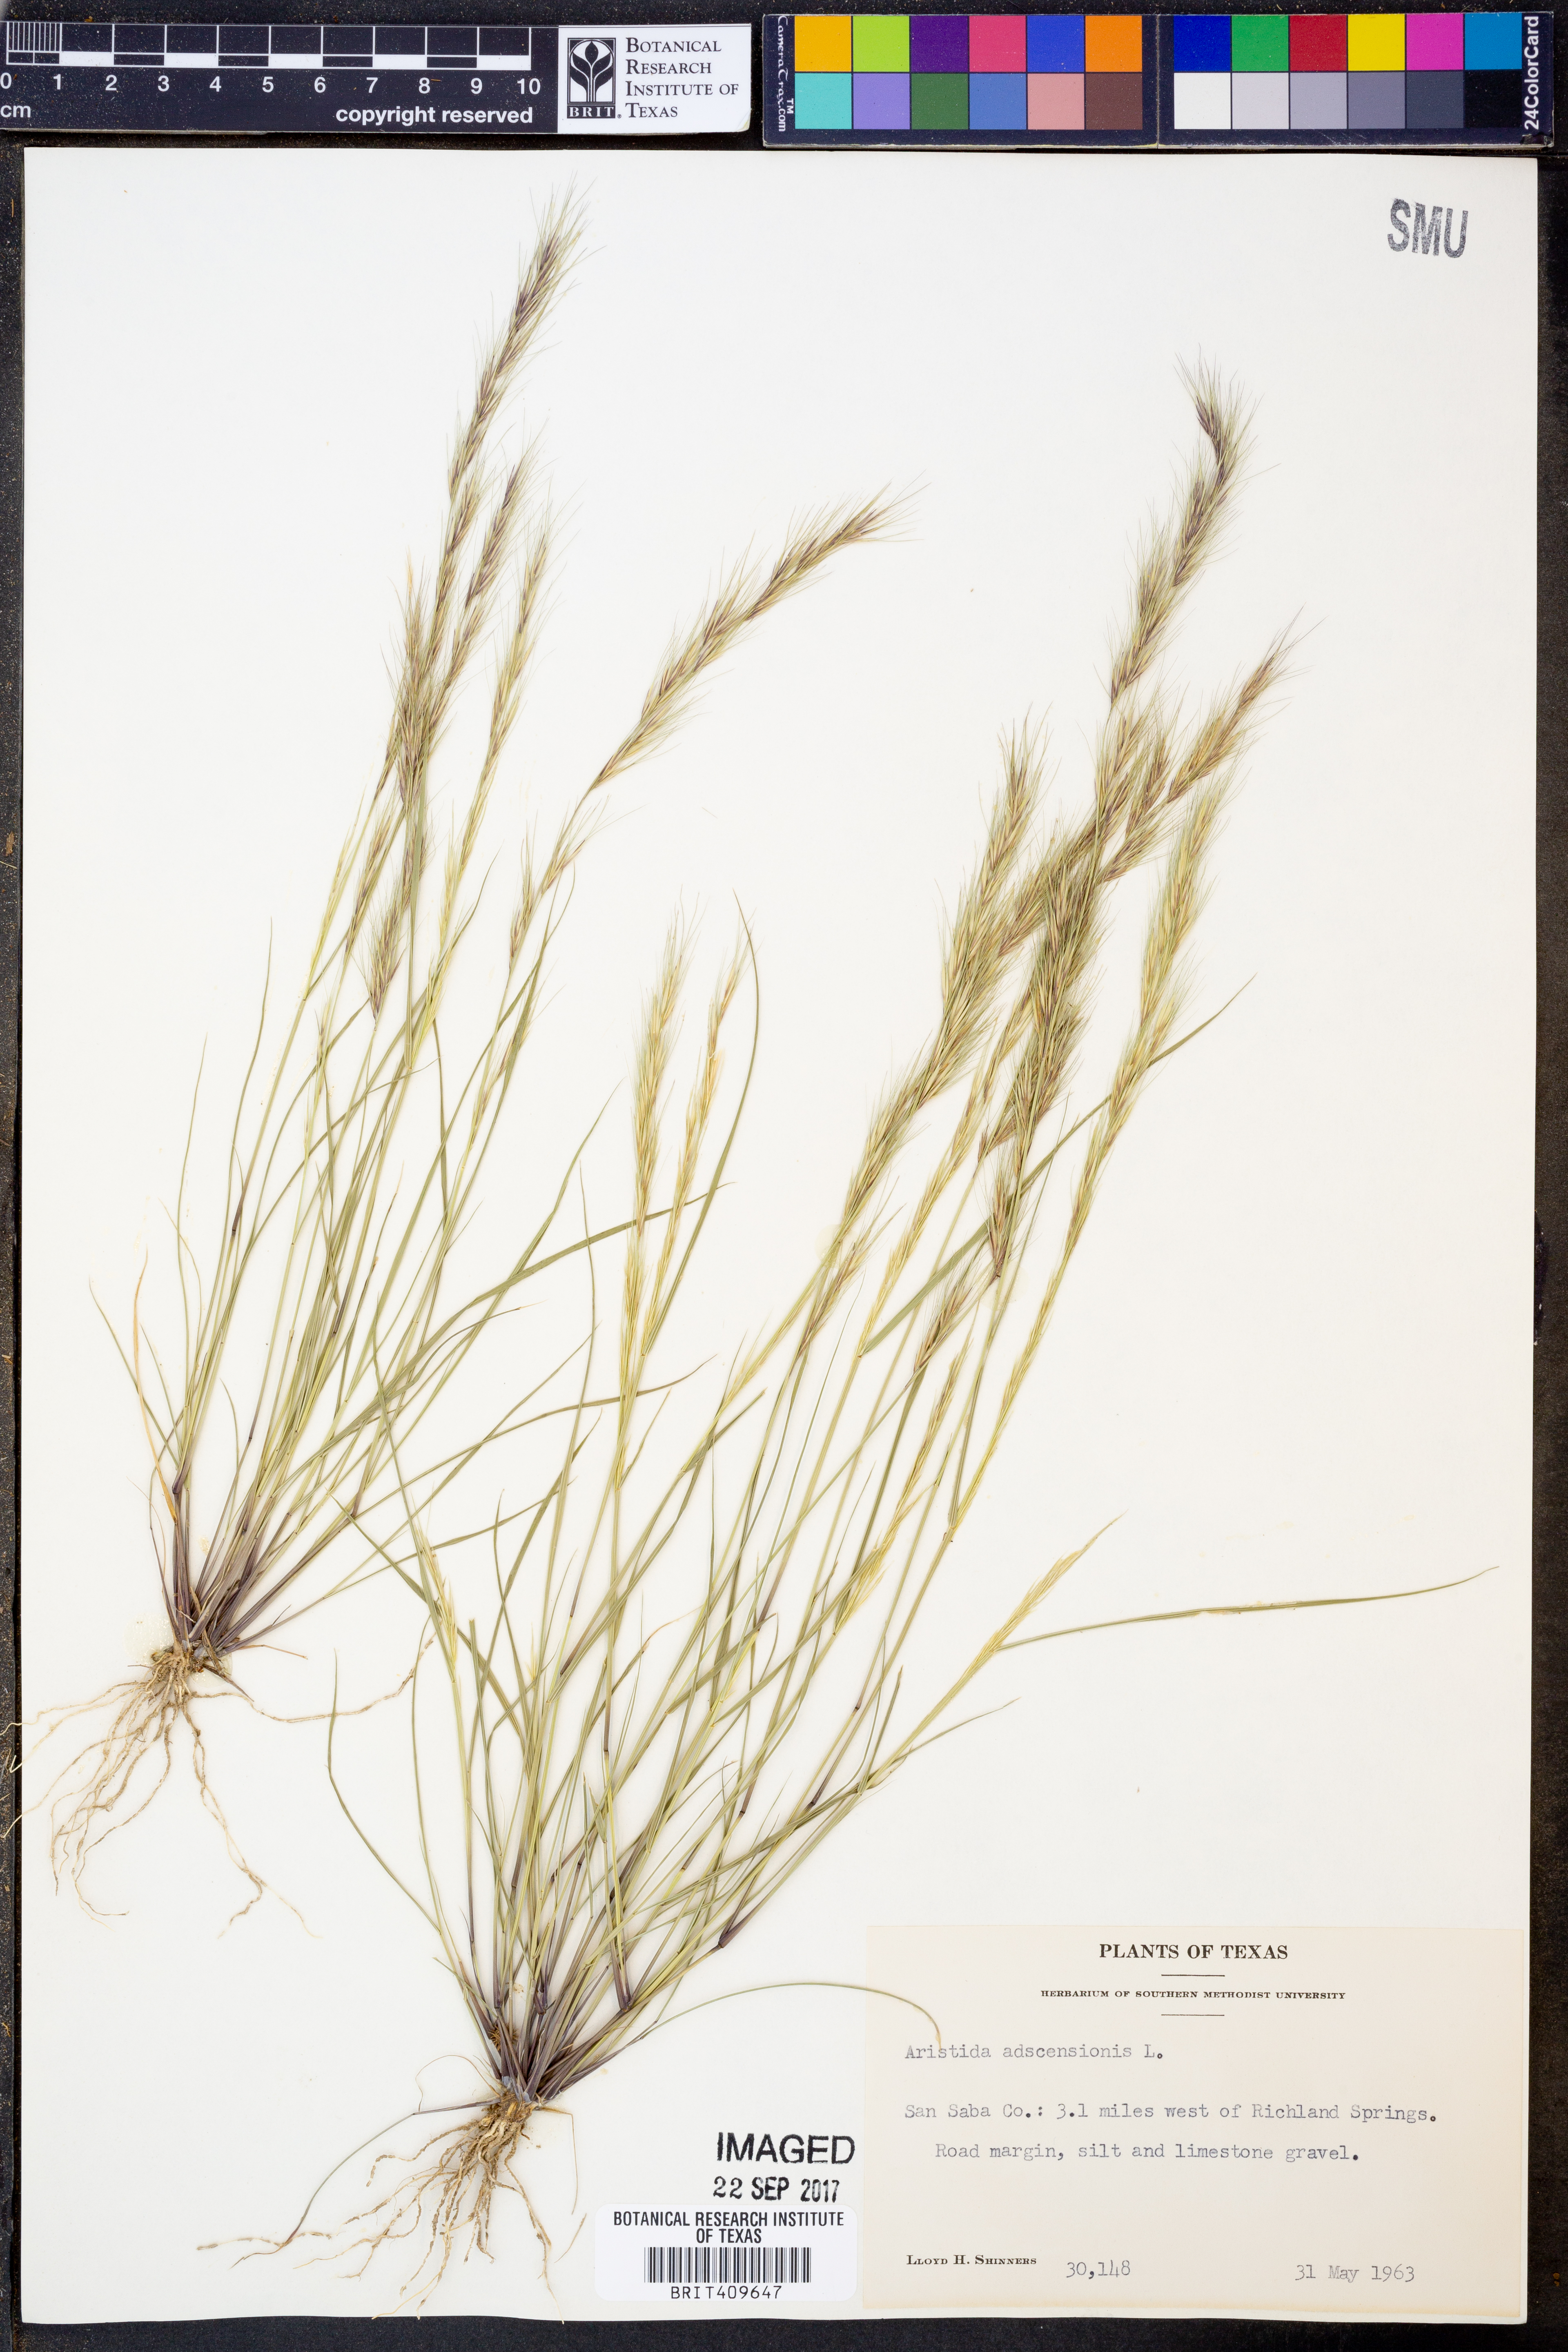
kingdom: Plantae
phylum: Tracheophyta
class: Liliopsida
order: Poales
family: Poaceae
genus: Aristida
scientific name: Aristida adscensionis
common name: Sixweeks threeawn
